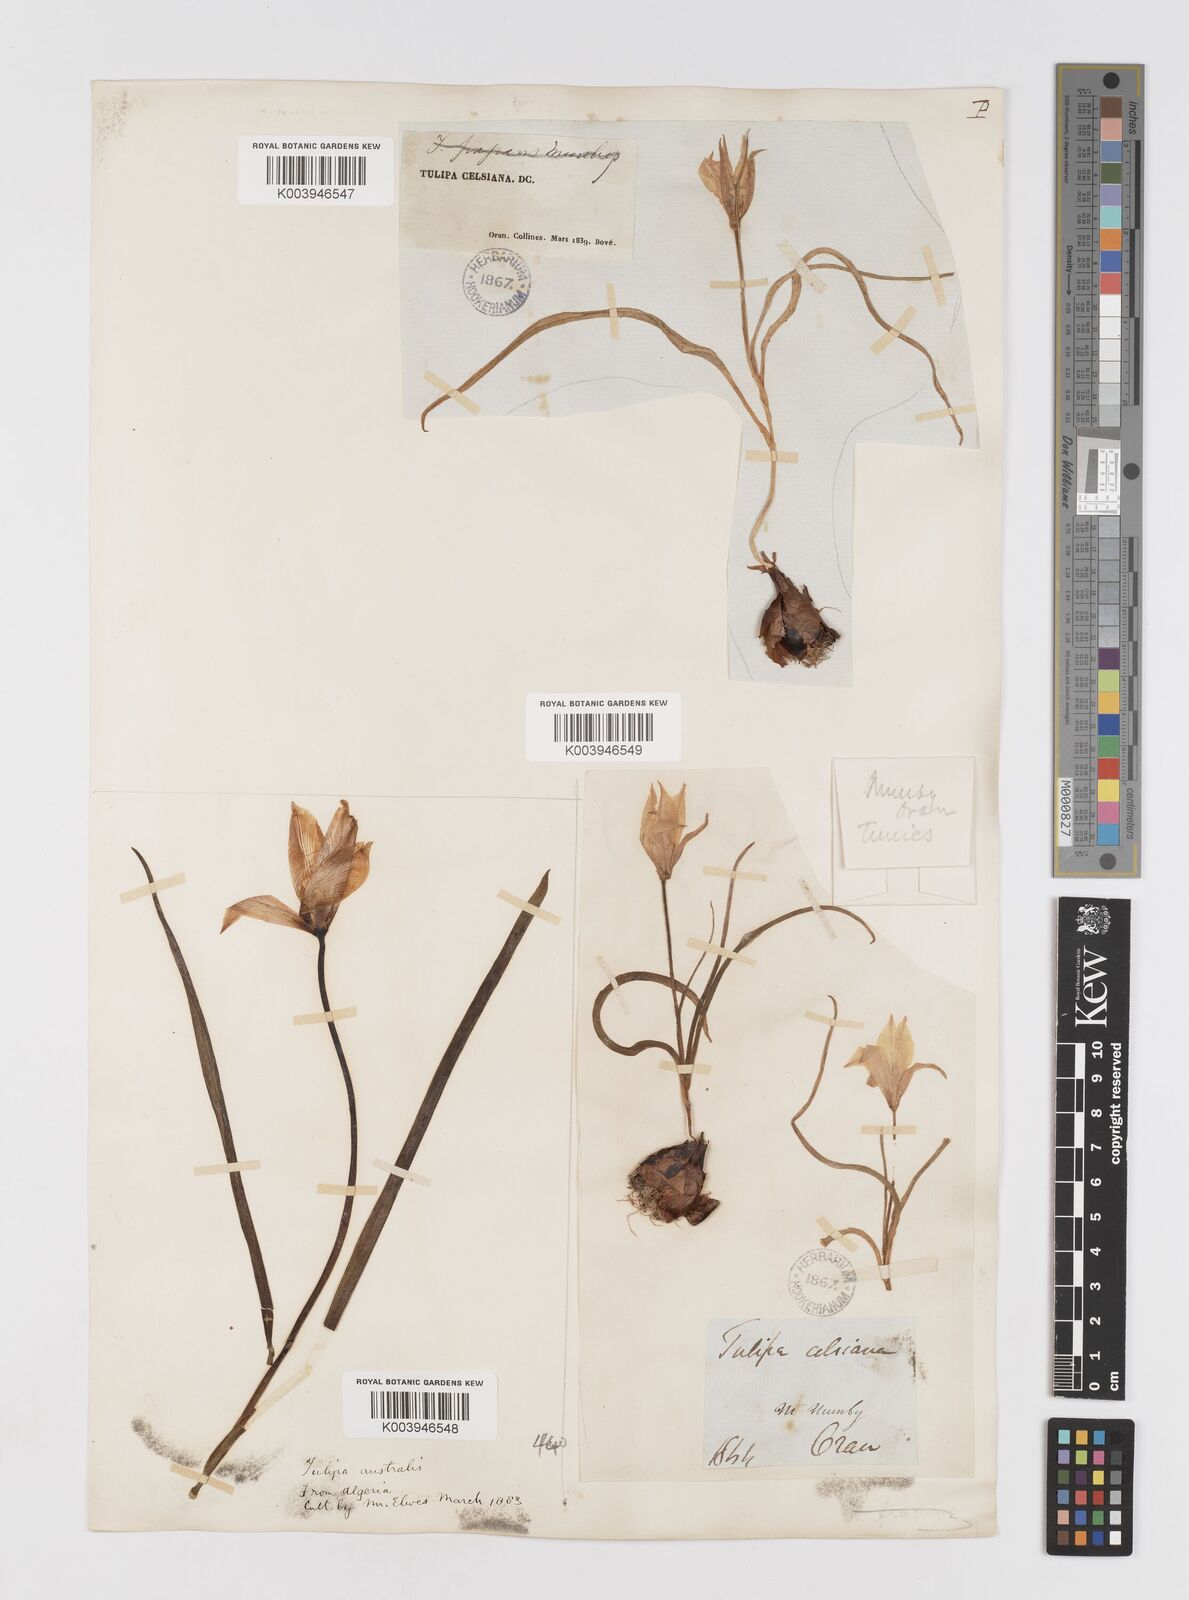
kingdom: Plantae
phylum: Tracheophyta
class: Liliopsida
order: Liliales
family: Liliaceae
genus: Tulipa
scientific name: Tulipa sylvestris
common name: Wild tulip
